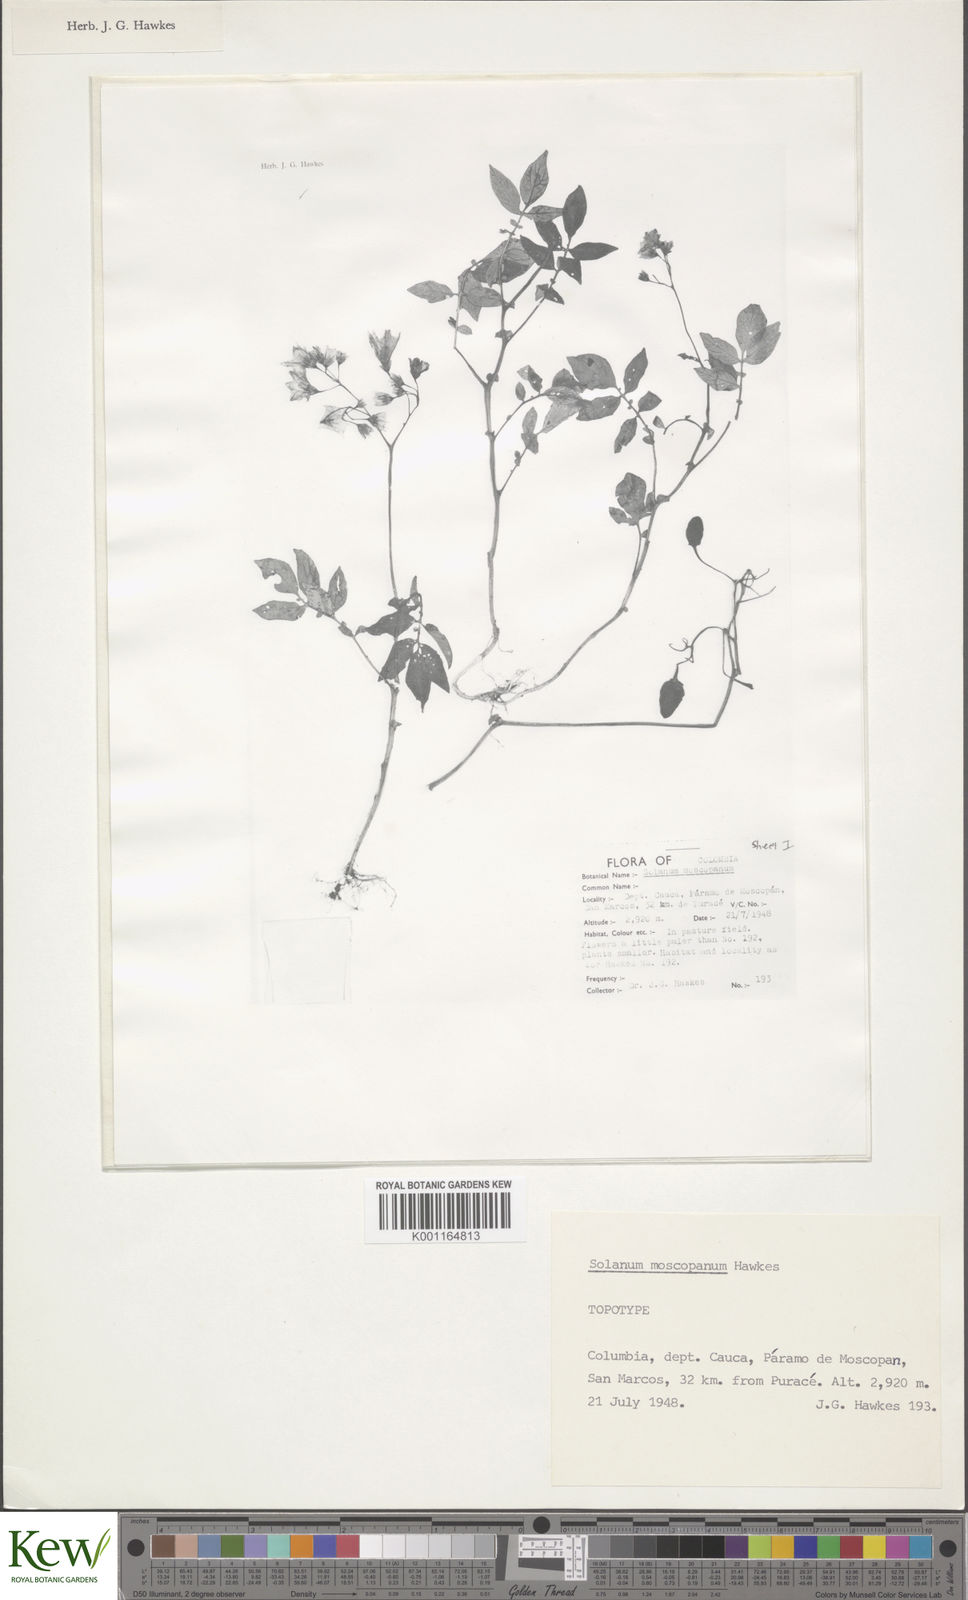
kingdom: Plantae
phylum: Tracheophyta
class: Magnoliopsida
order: Solanales
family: Solanaceae
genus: Solanum
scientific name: Solanum colombianum
